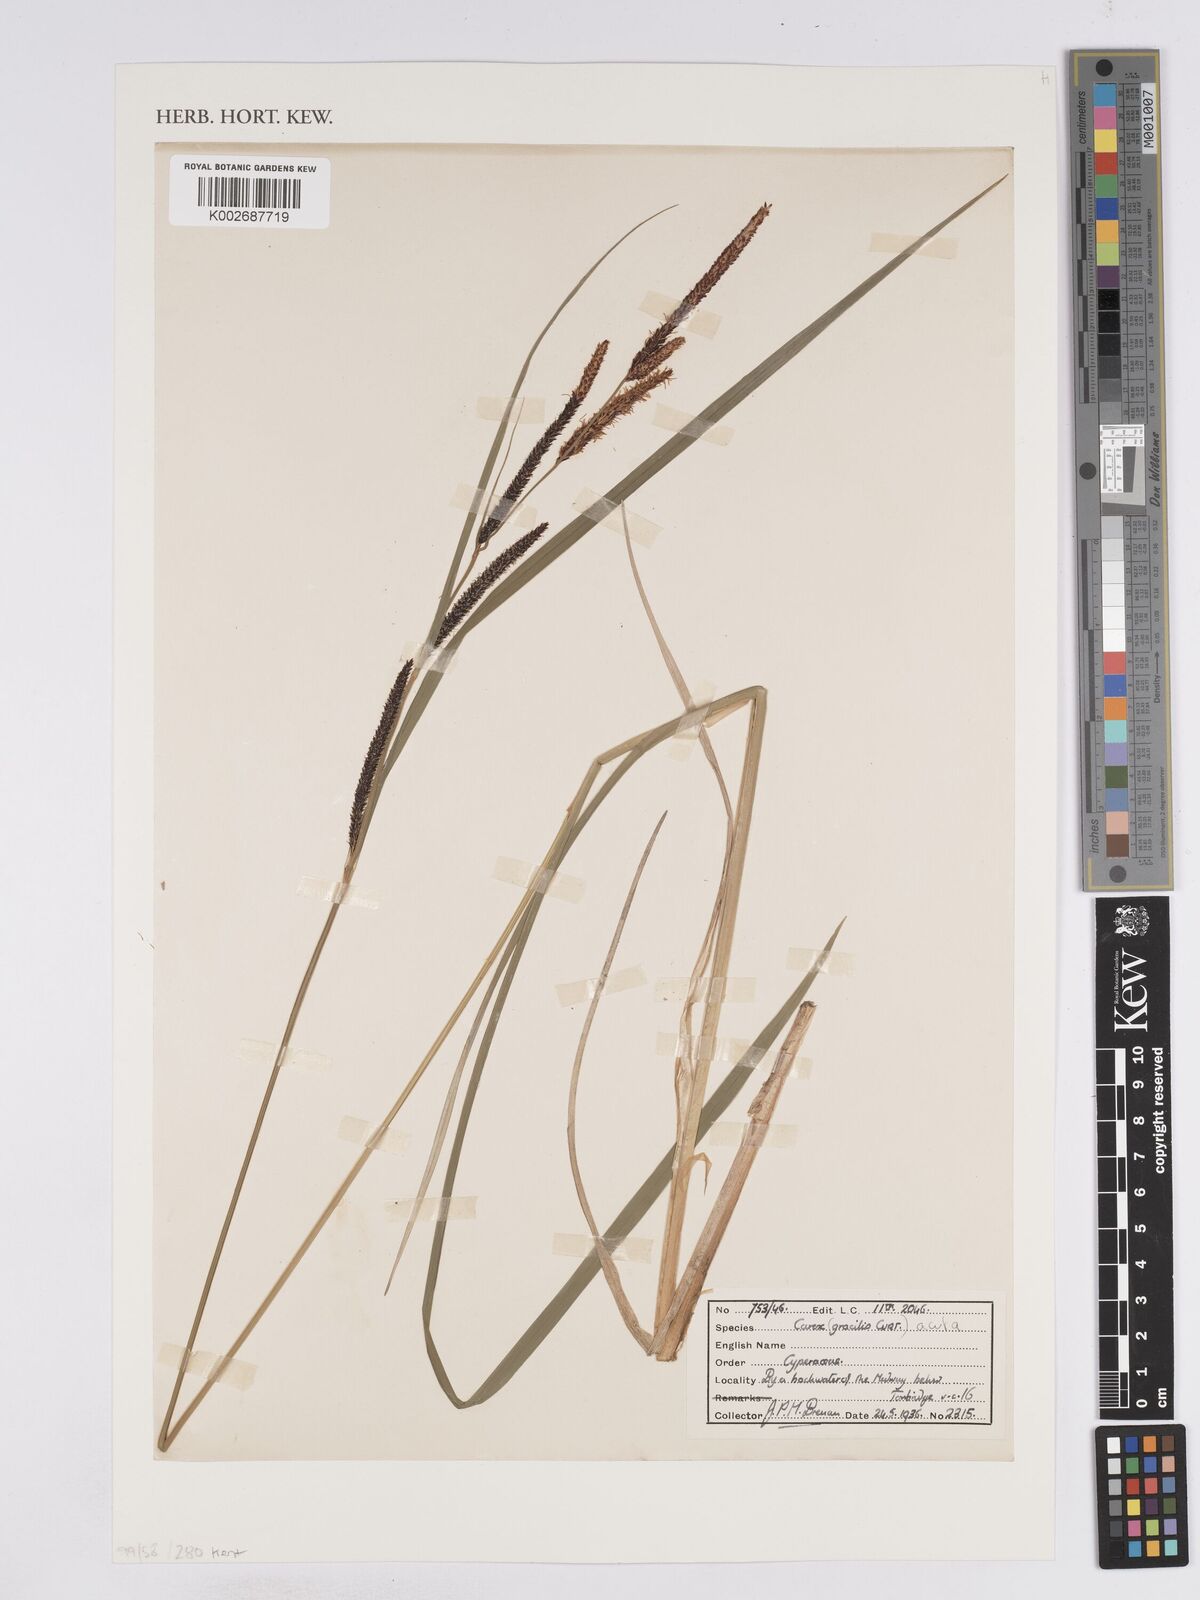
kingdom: Plantae
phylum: Tracheophyta
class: Liliopsida
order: Poales
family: Cyperaceae
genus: Carex
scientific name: Carex acuta
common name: Slender tufted-sedge
